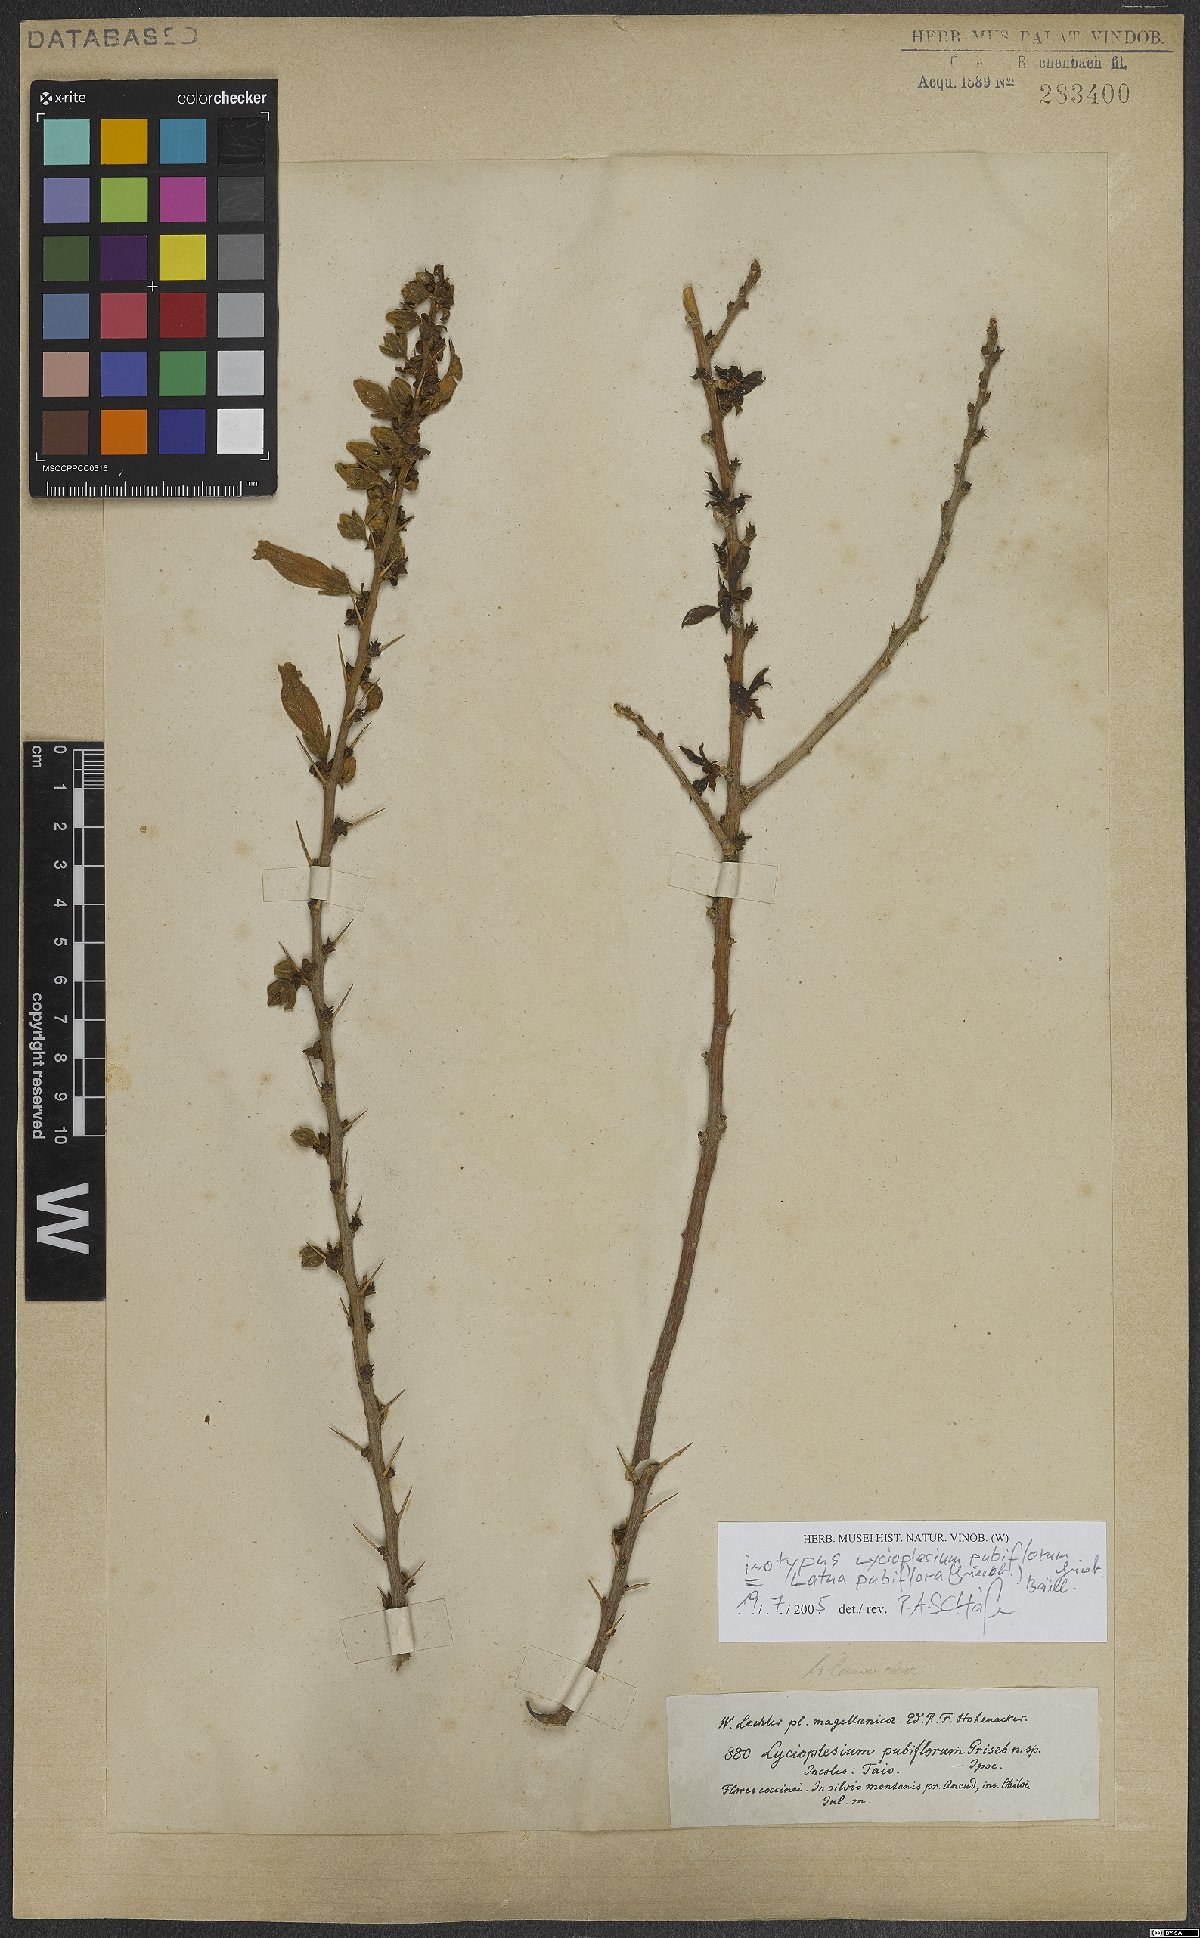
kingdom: Plantae
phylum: Tracheophyta
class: Magnoliopsida
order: Solanales
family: Solanaceae
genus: Latua
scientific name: Latua pubiflora
